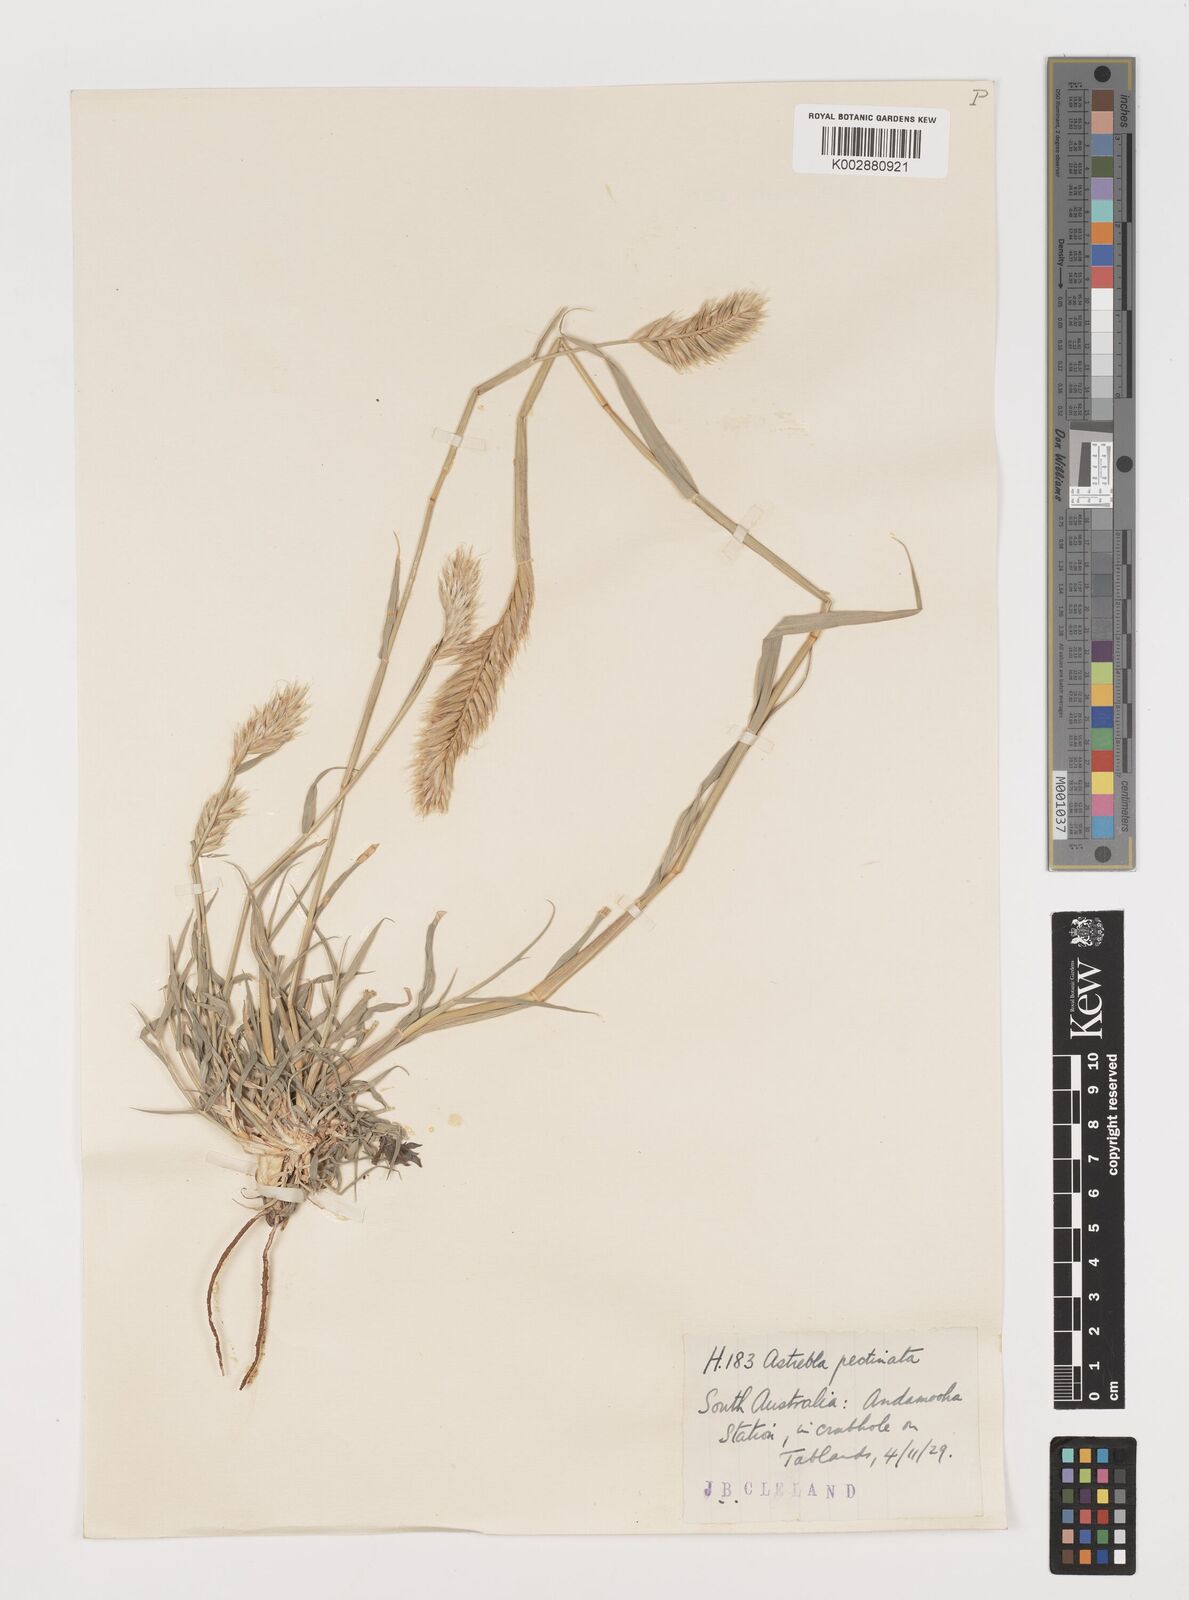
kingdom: Plantae
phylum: Tracheophyta
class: Liliopsida
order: Poales
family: Poaceae
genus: Astrebla
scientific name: Astrebla pectinata
